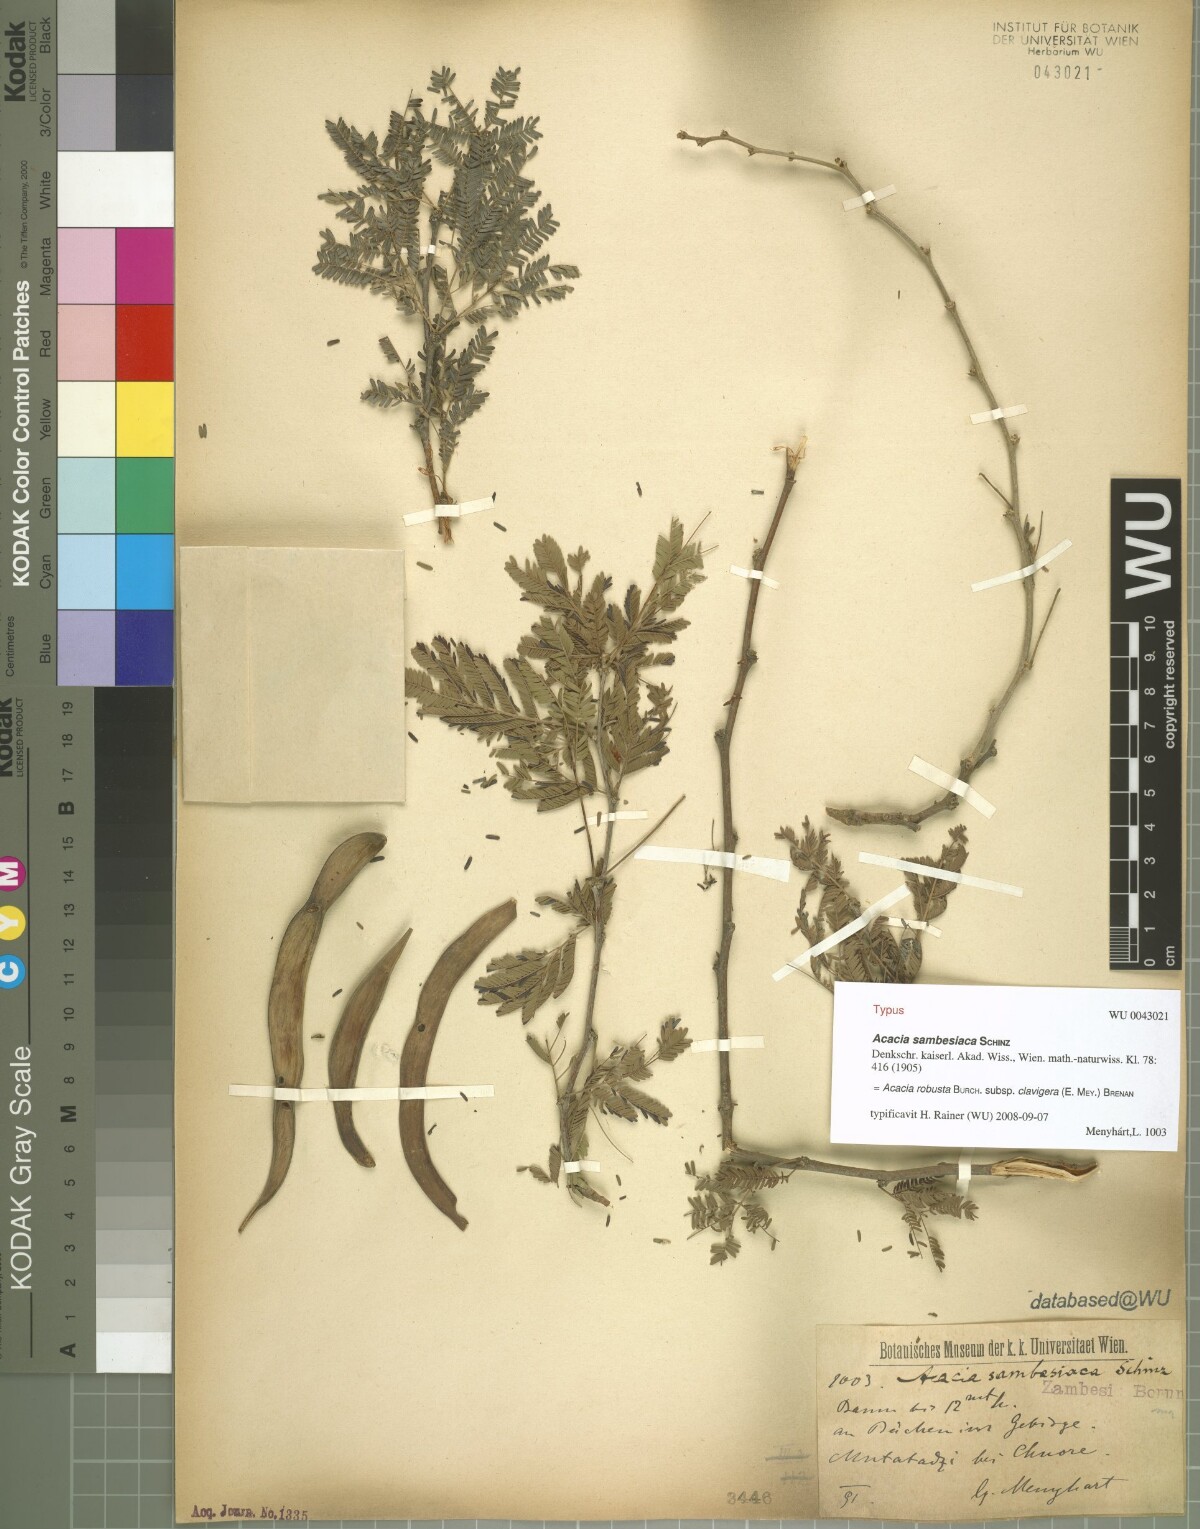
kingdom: Plantae
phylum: Tracheophyta
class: Magnoliopsida
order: Fabales
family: Fabaceae
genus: Vachellia
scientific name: Vachellia robusta
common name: Ankle thorn
